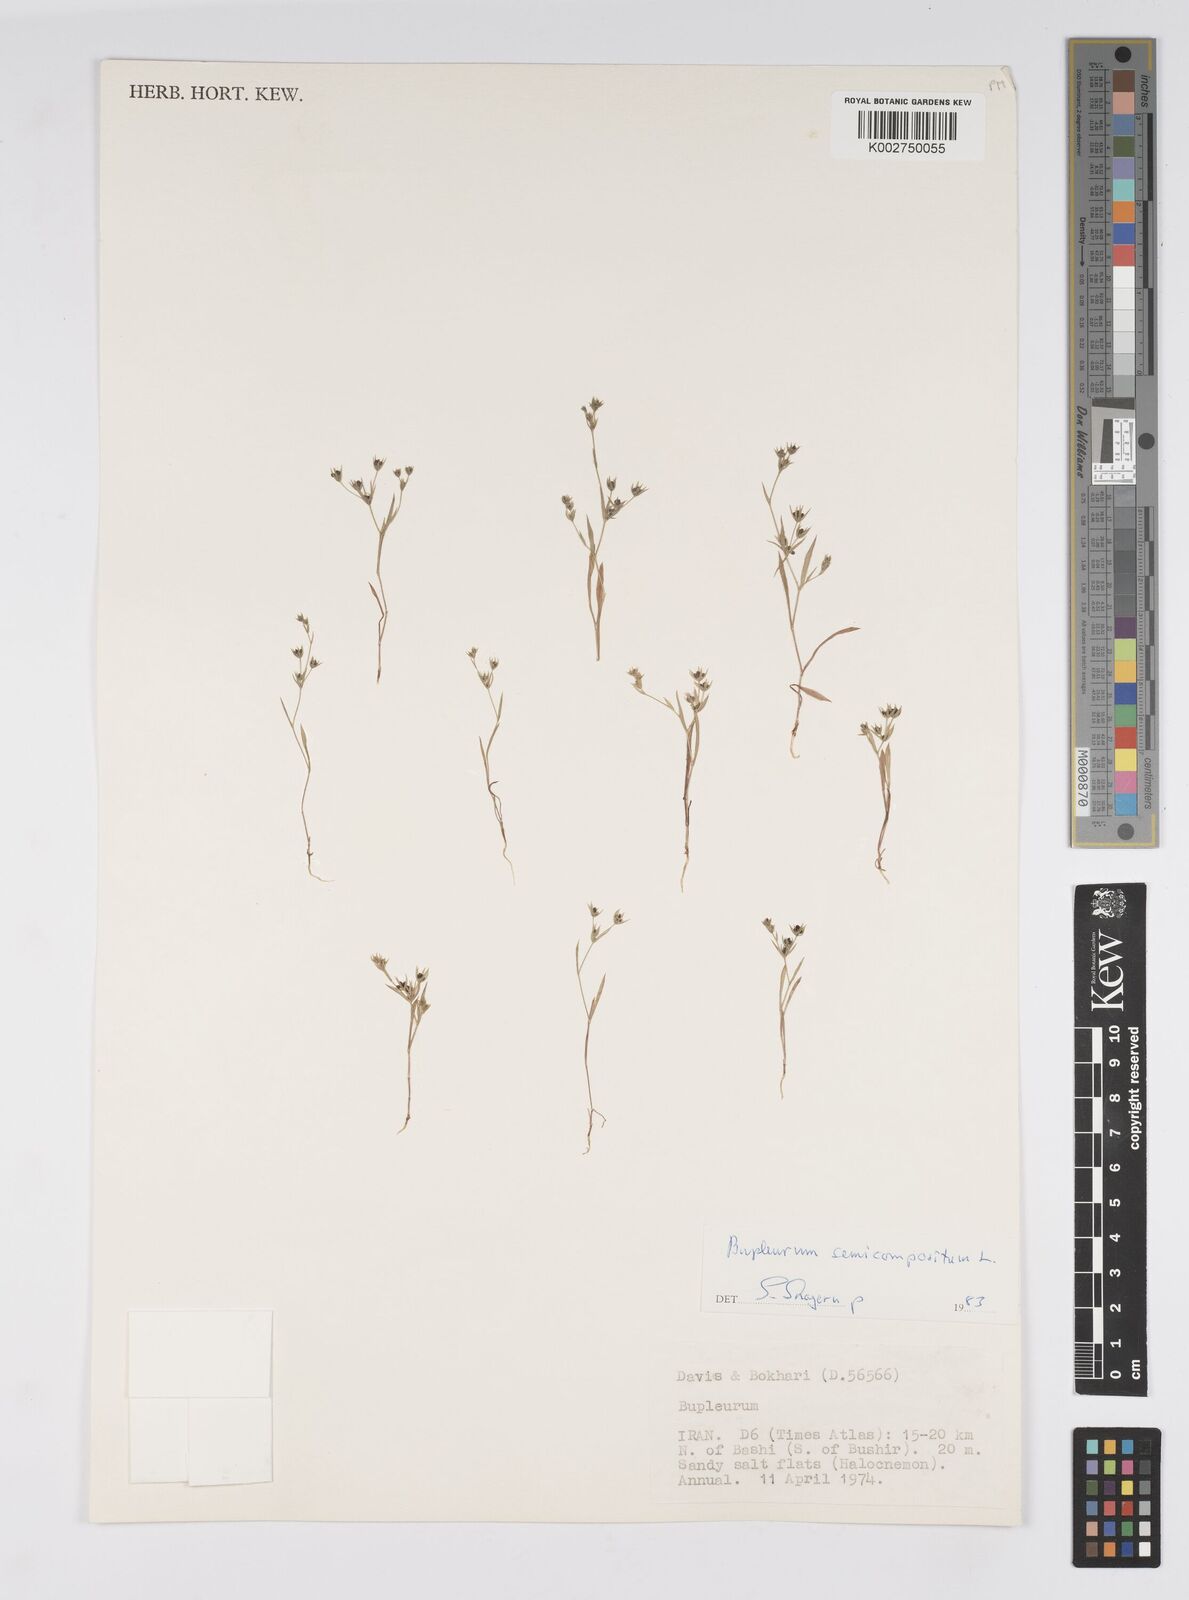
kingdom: Plantae
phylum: Tracheophyta
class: Magnoliopsida
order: Apiales
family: Apiaceae
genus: Bupleurum
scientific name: Bupleurum
